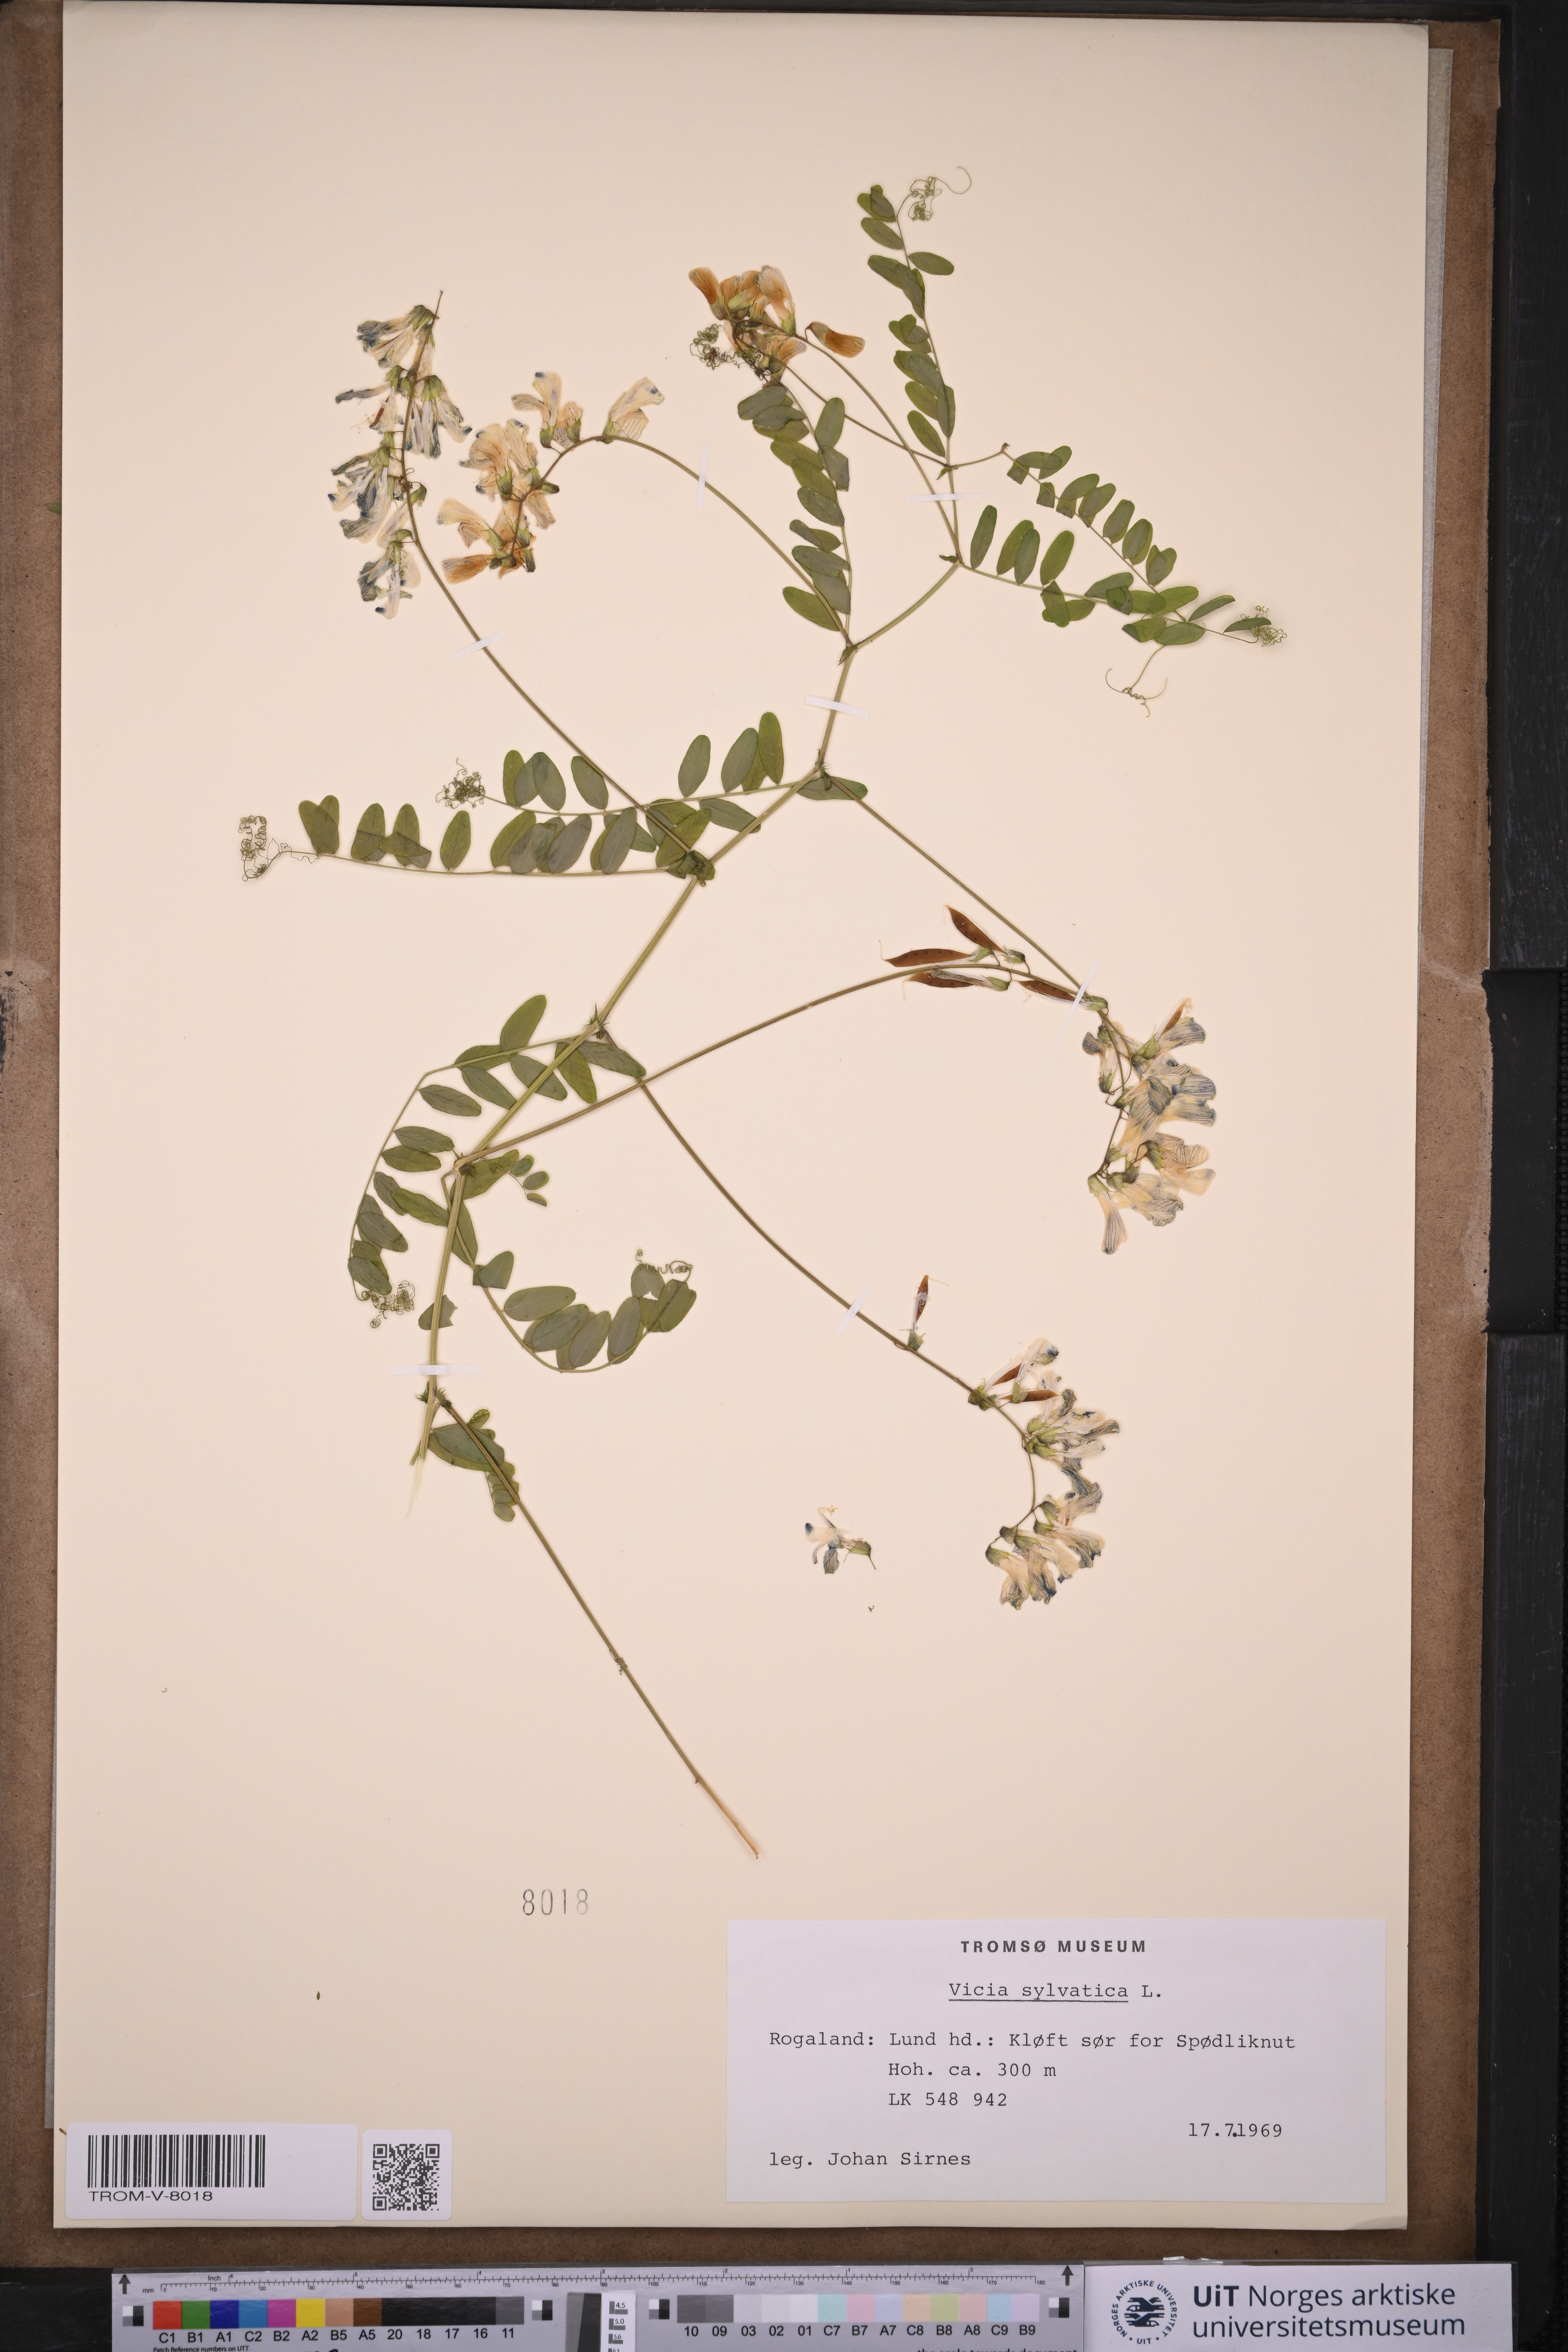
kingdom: Plantae
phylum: Tracheophyta
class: Magnoliopsida
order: Fabales
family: Fabaceae
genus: Vicia
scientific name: Vicia sylvatica
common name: Wood vetch
